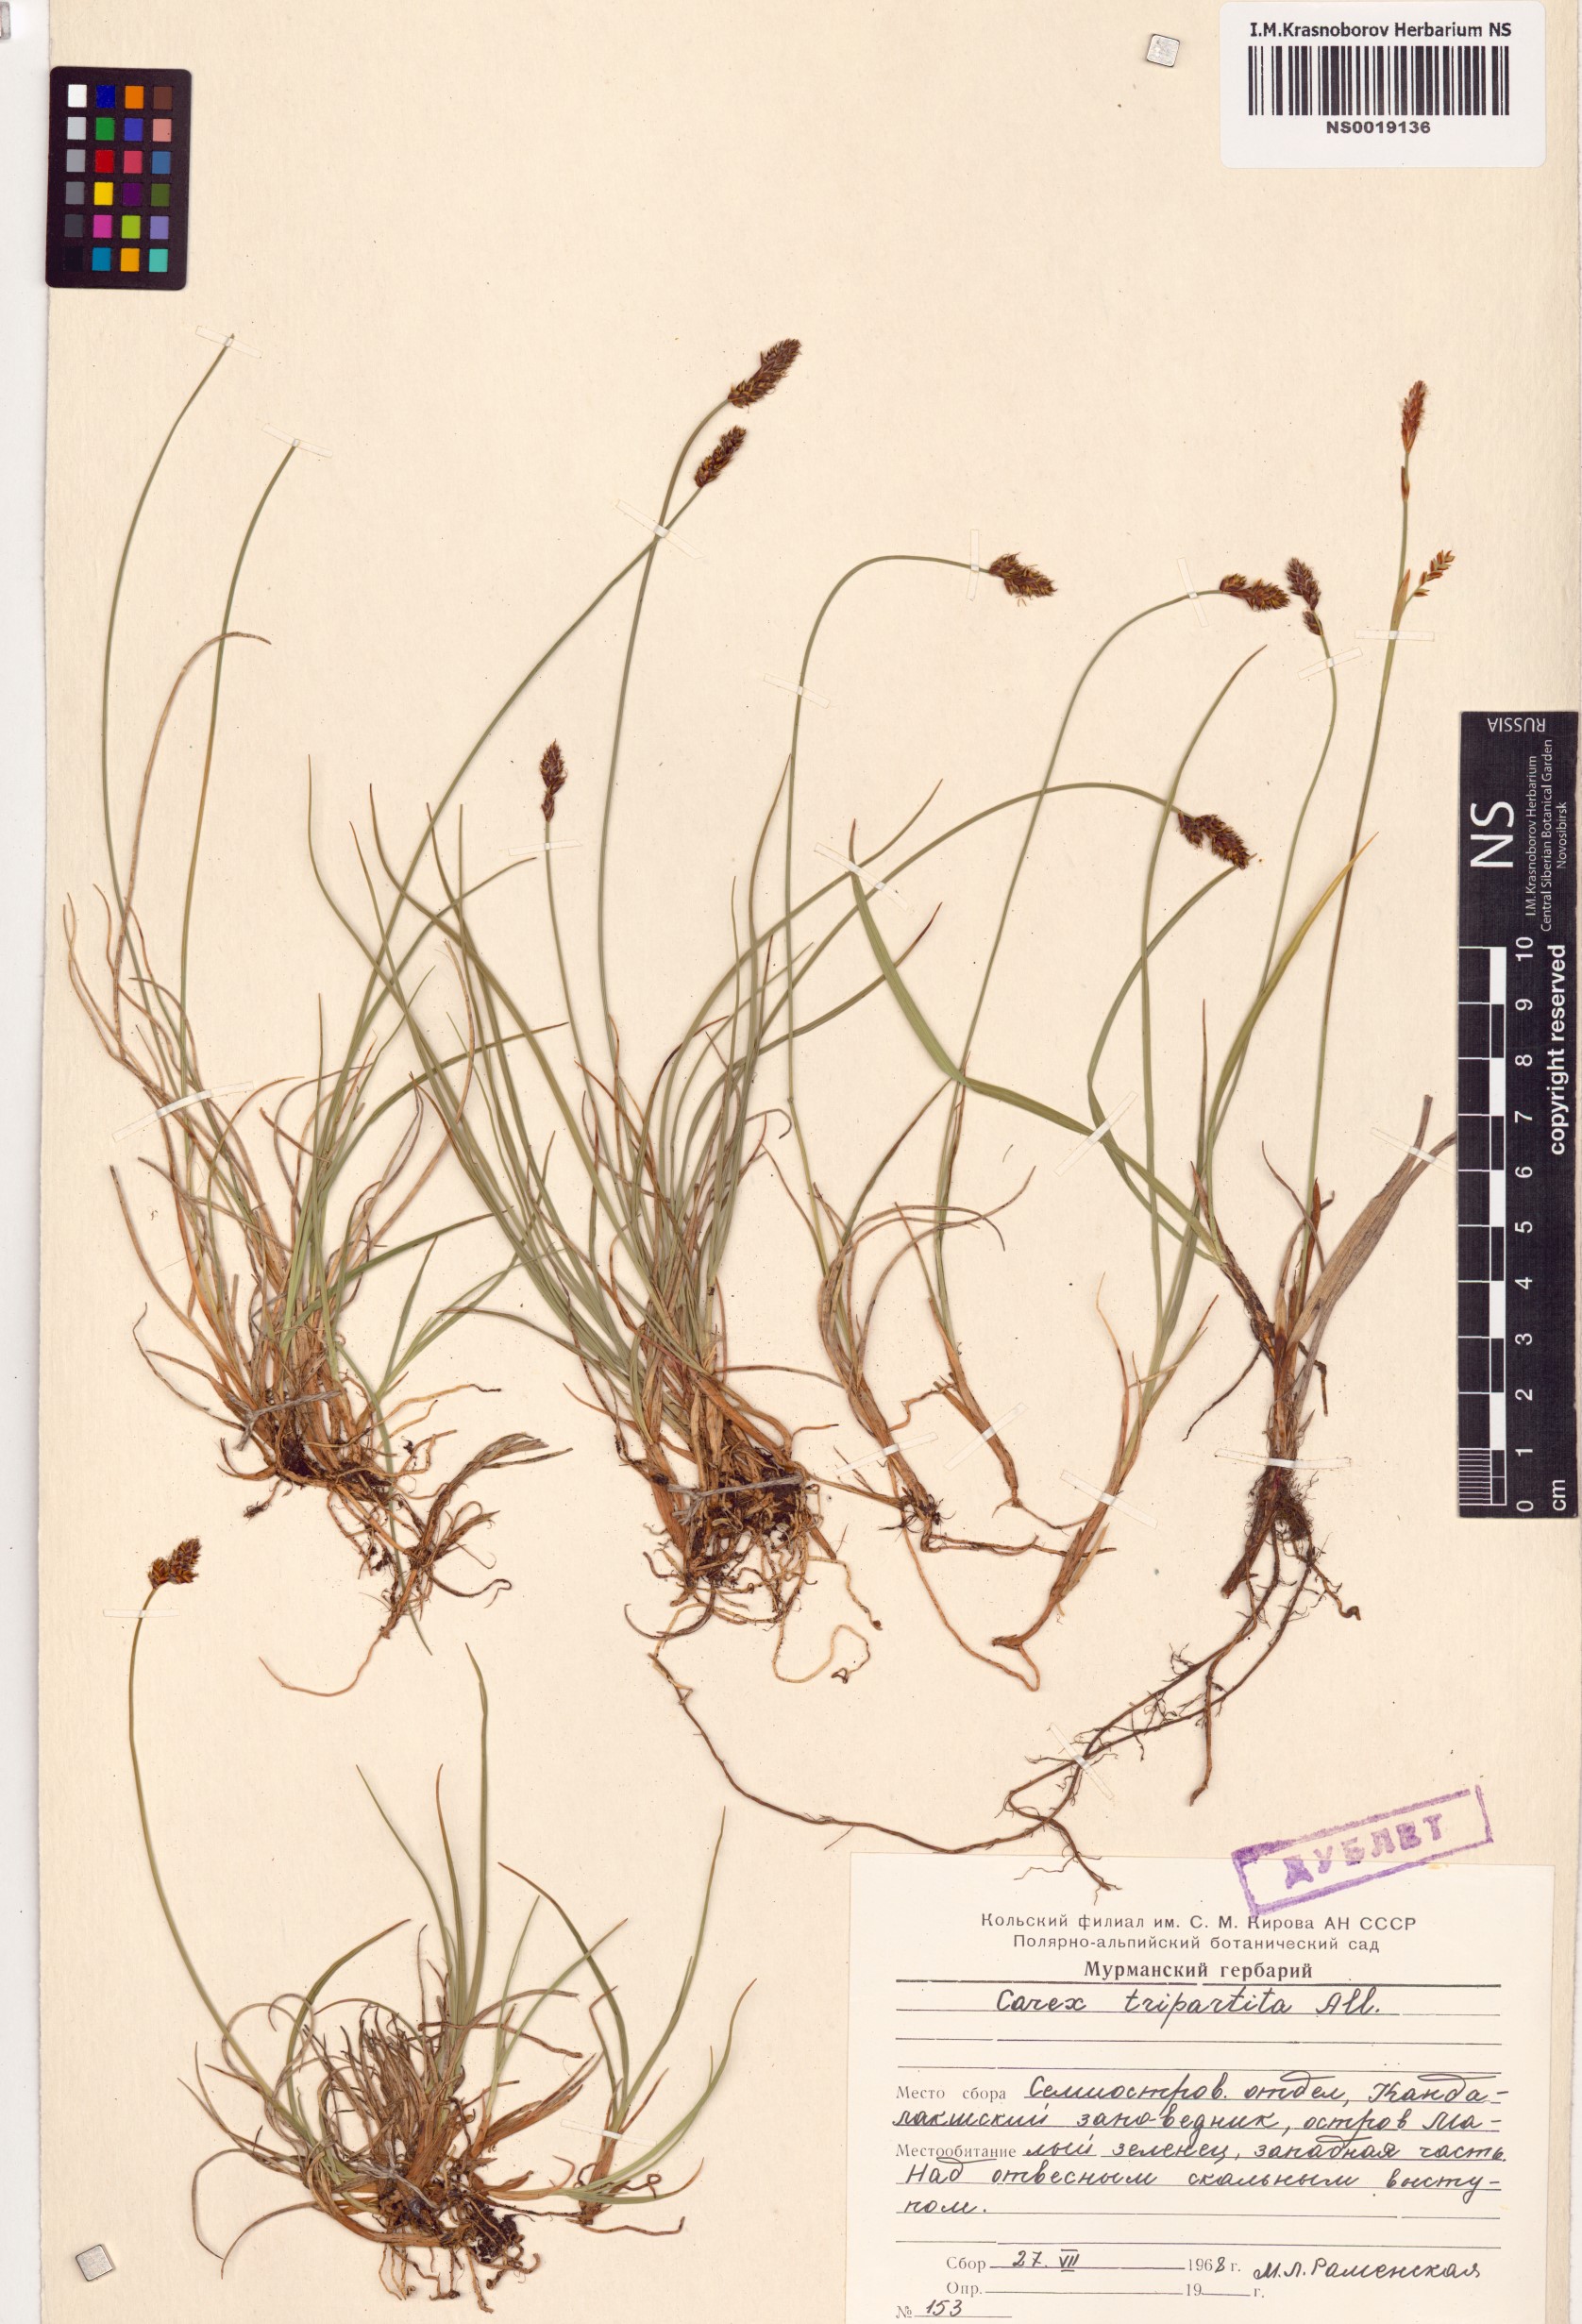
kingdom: Plantae
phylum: Tracheophyta
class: Liliopsida
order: Poales
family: Cyperaceae
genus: Carex
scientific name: Carex lachenalii
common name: Hare's-foot sedge
